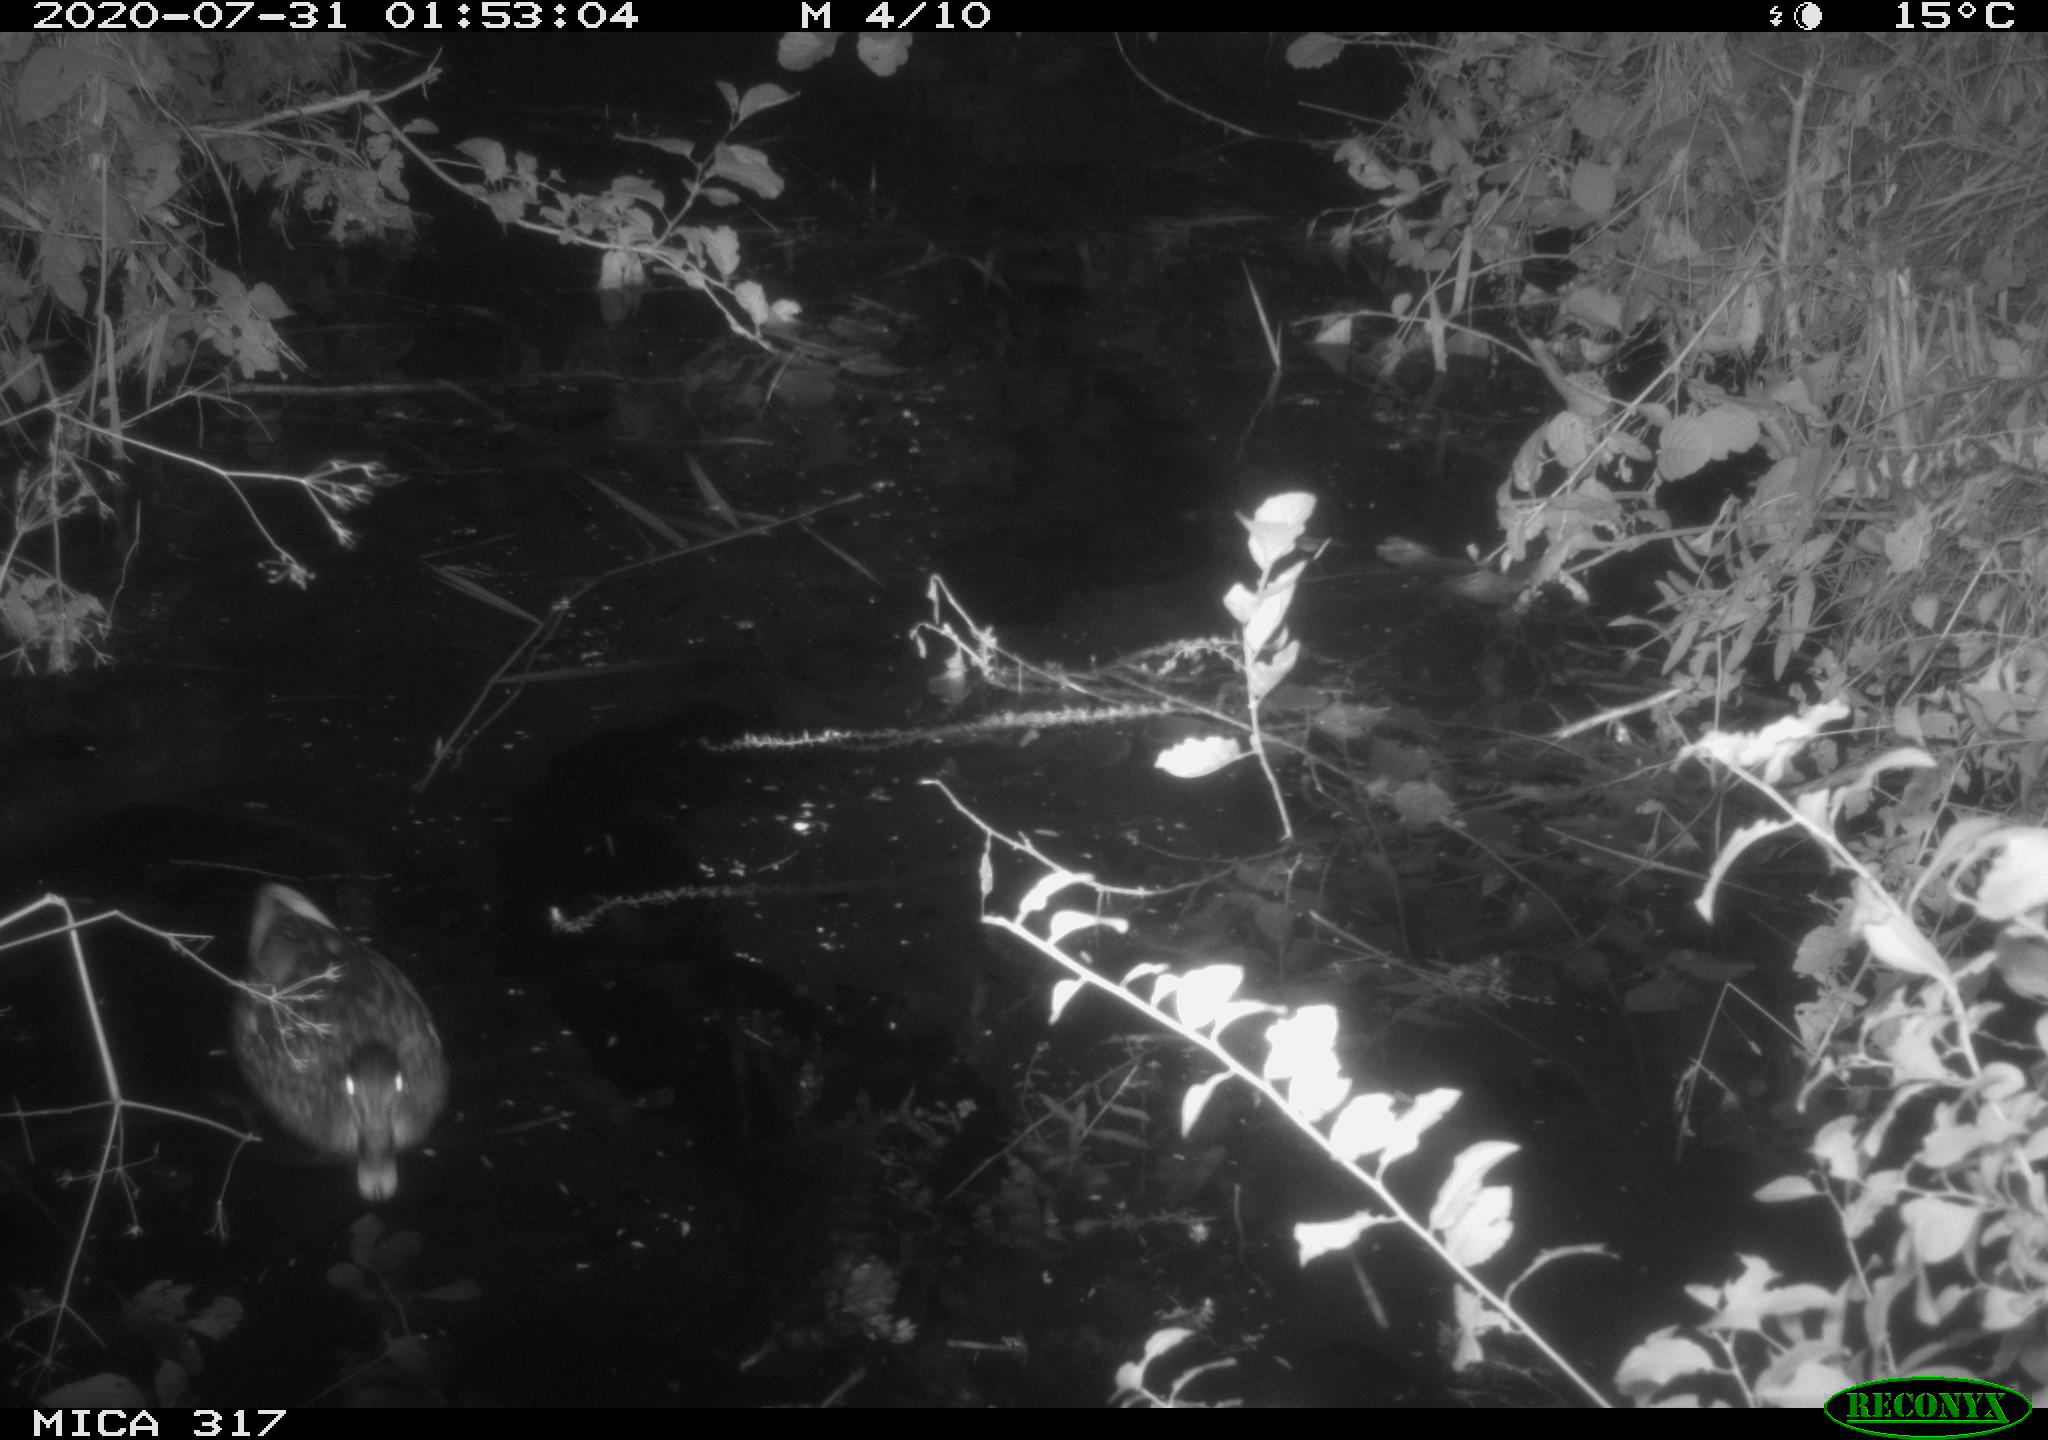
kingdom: Animalia
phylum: Chordata
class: Aves
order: Anseriformes
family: Anatidae
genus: Anas
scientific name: Anas platyrhynchos
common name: Mallard
